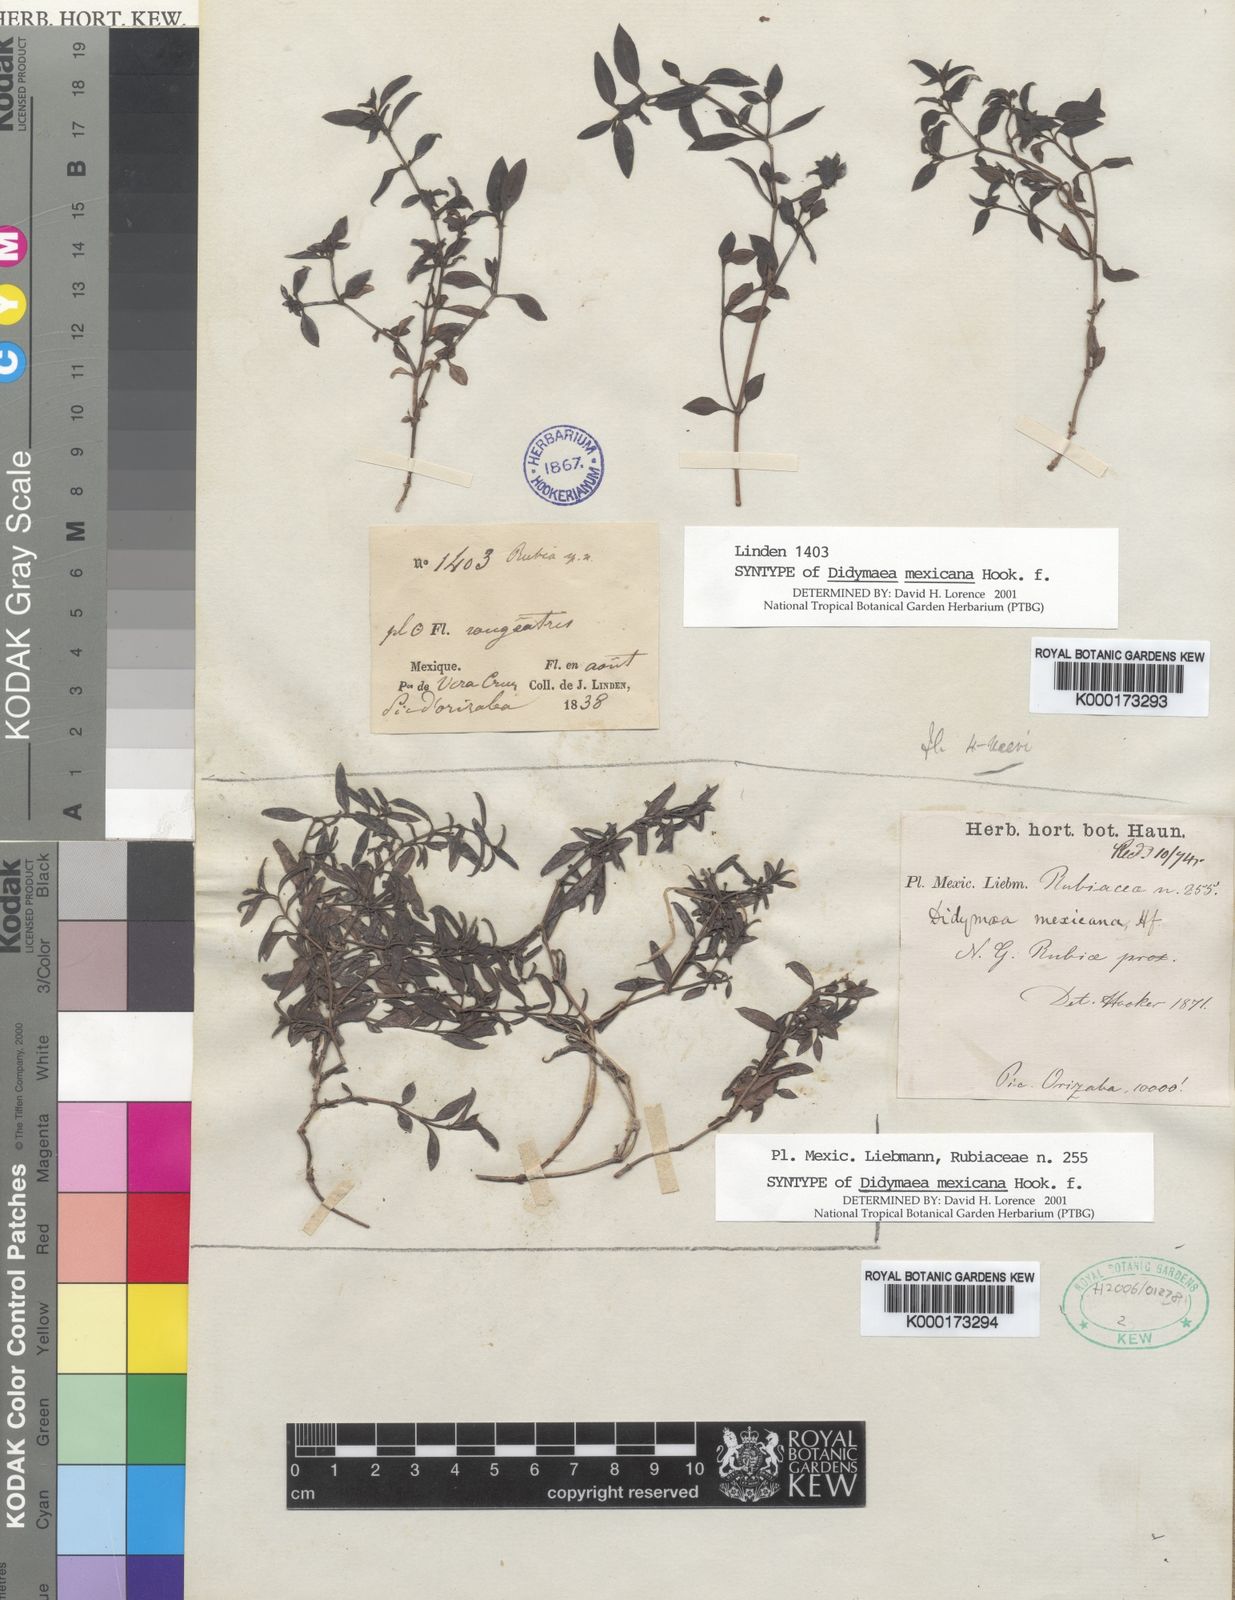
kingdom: Plantae
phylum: Tracheophyta
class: Magnoliopsida
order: Gentianales
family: Rubiaceae
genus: Didymaea
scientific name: Didymaea alsinoides
